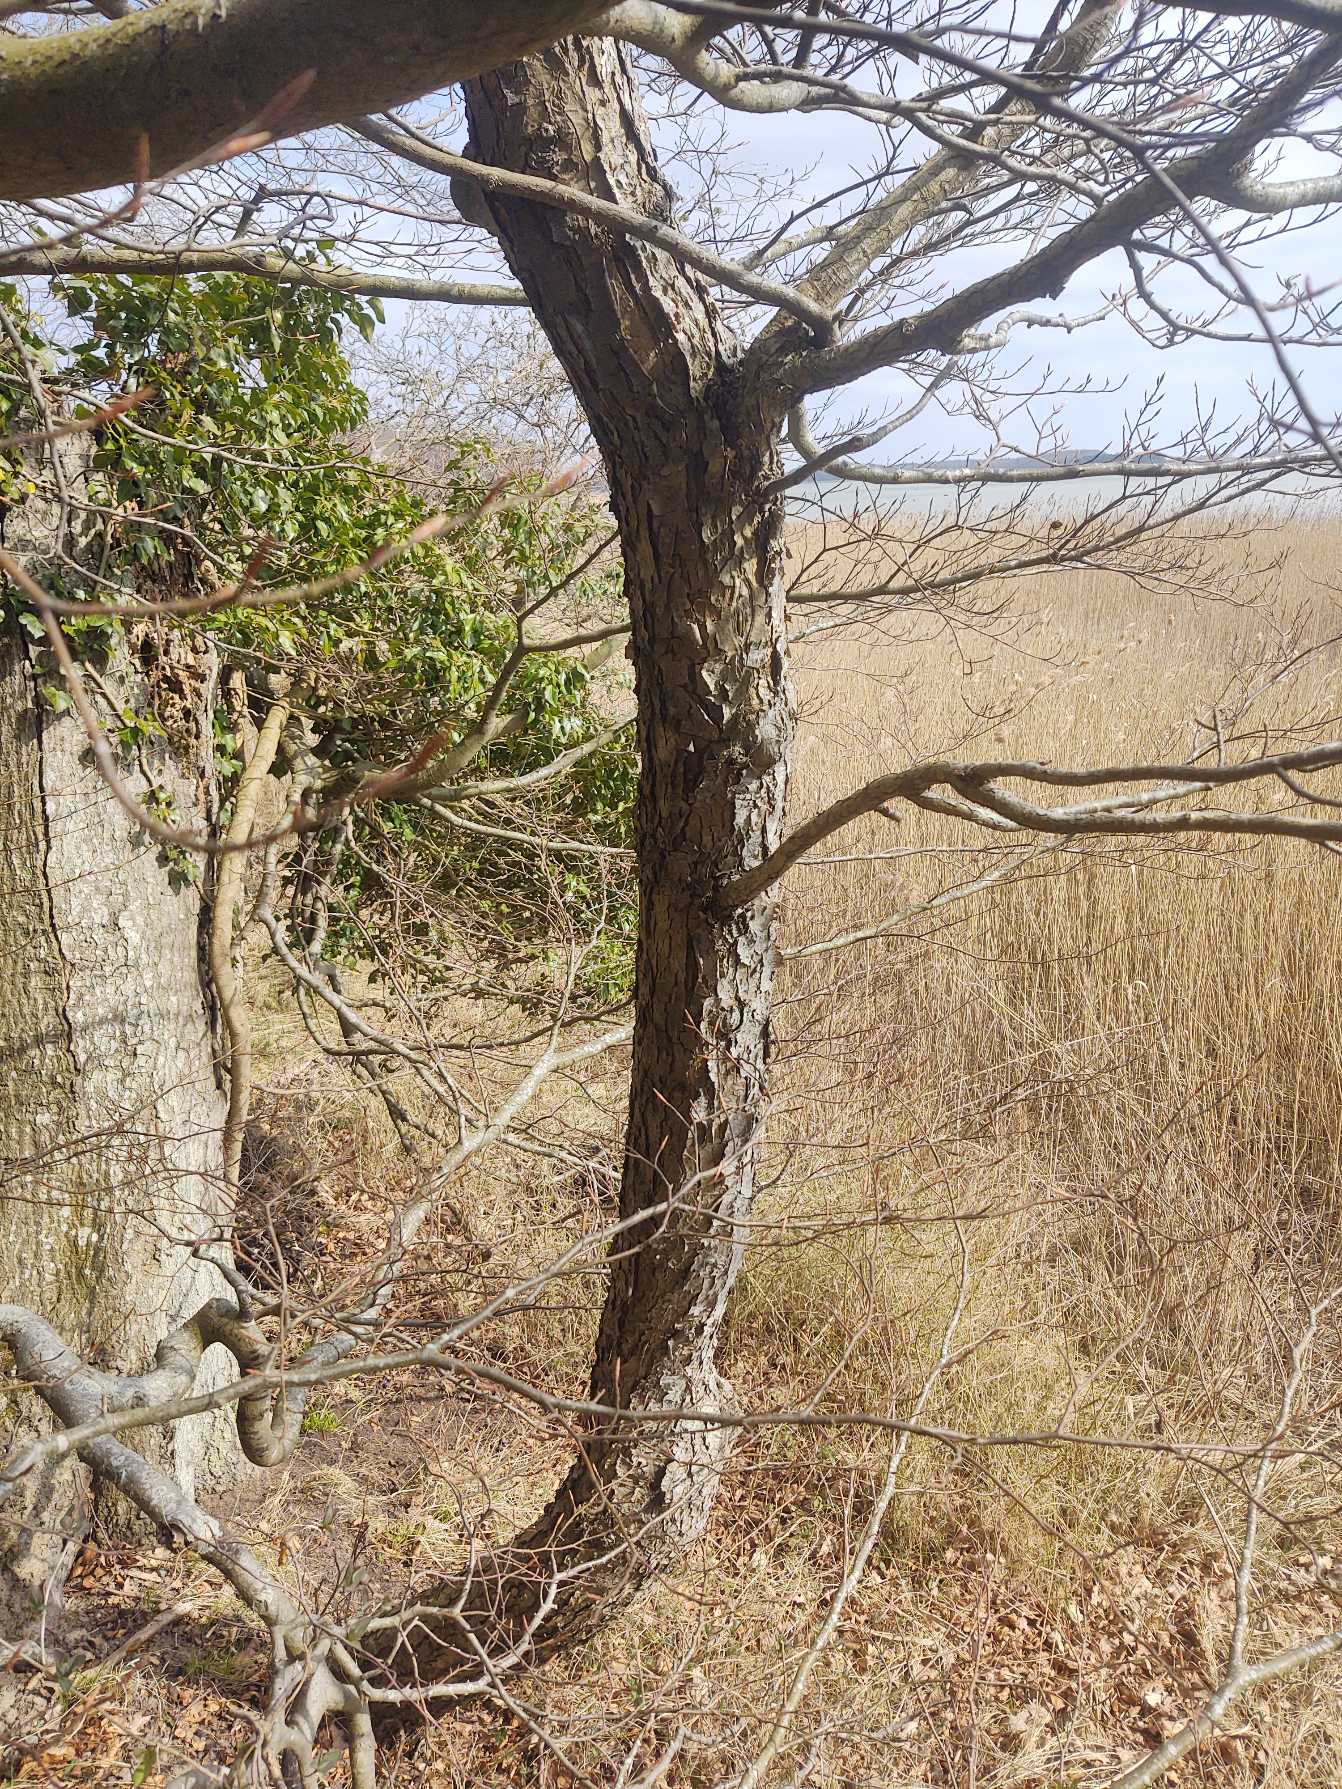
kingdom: Plantae
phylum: Tracheophyta
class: Magnoliopsida
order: Rosales
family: Rosaceae
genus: Torminalis
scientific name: Torminalis glaberrima
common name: Tarmvrid-røn
